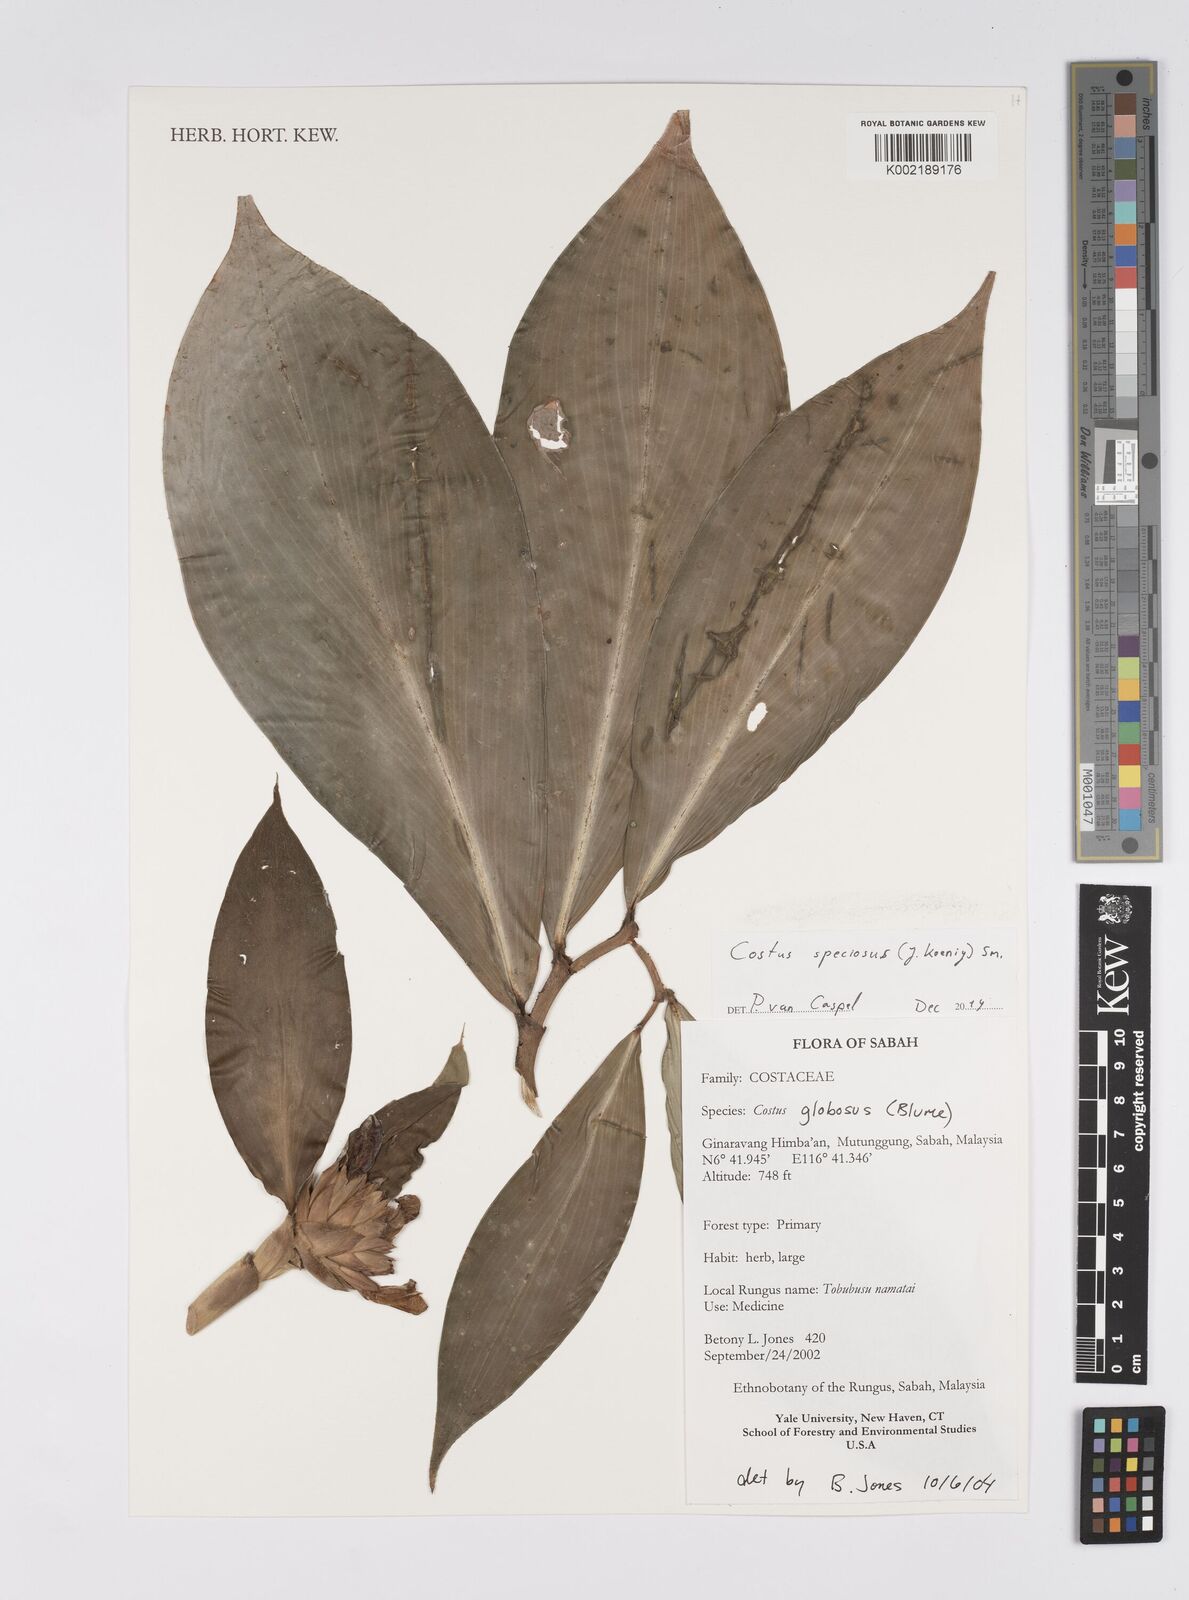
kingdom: Plantae
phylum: Tracheophyta
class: Liliopsida
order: Zingiberales
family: Costaceae
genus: Hellenia
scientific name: Hellenia speciosa
